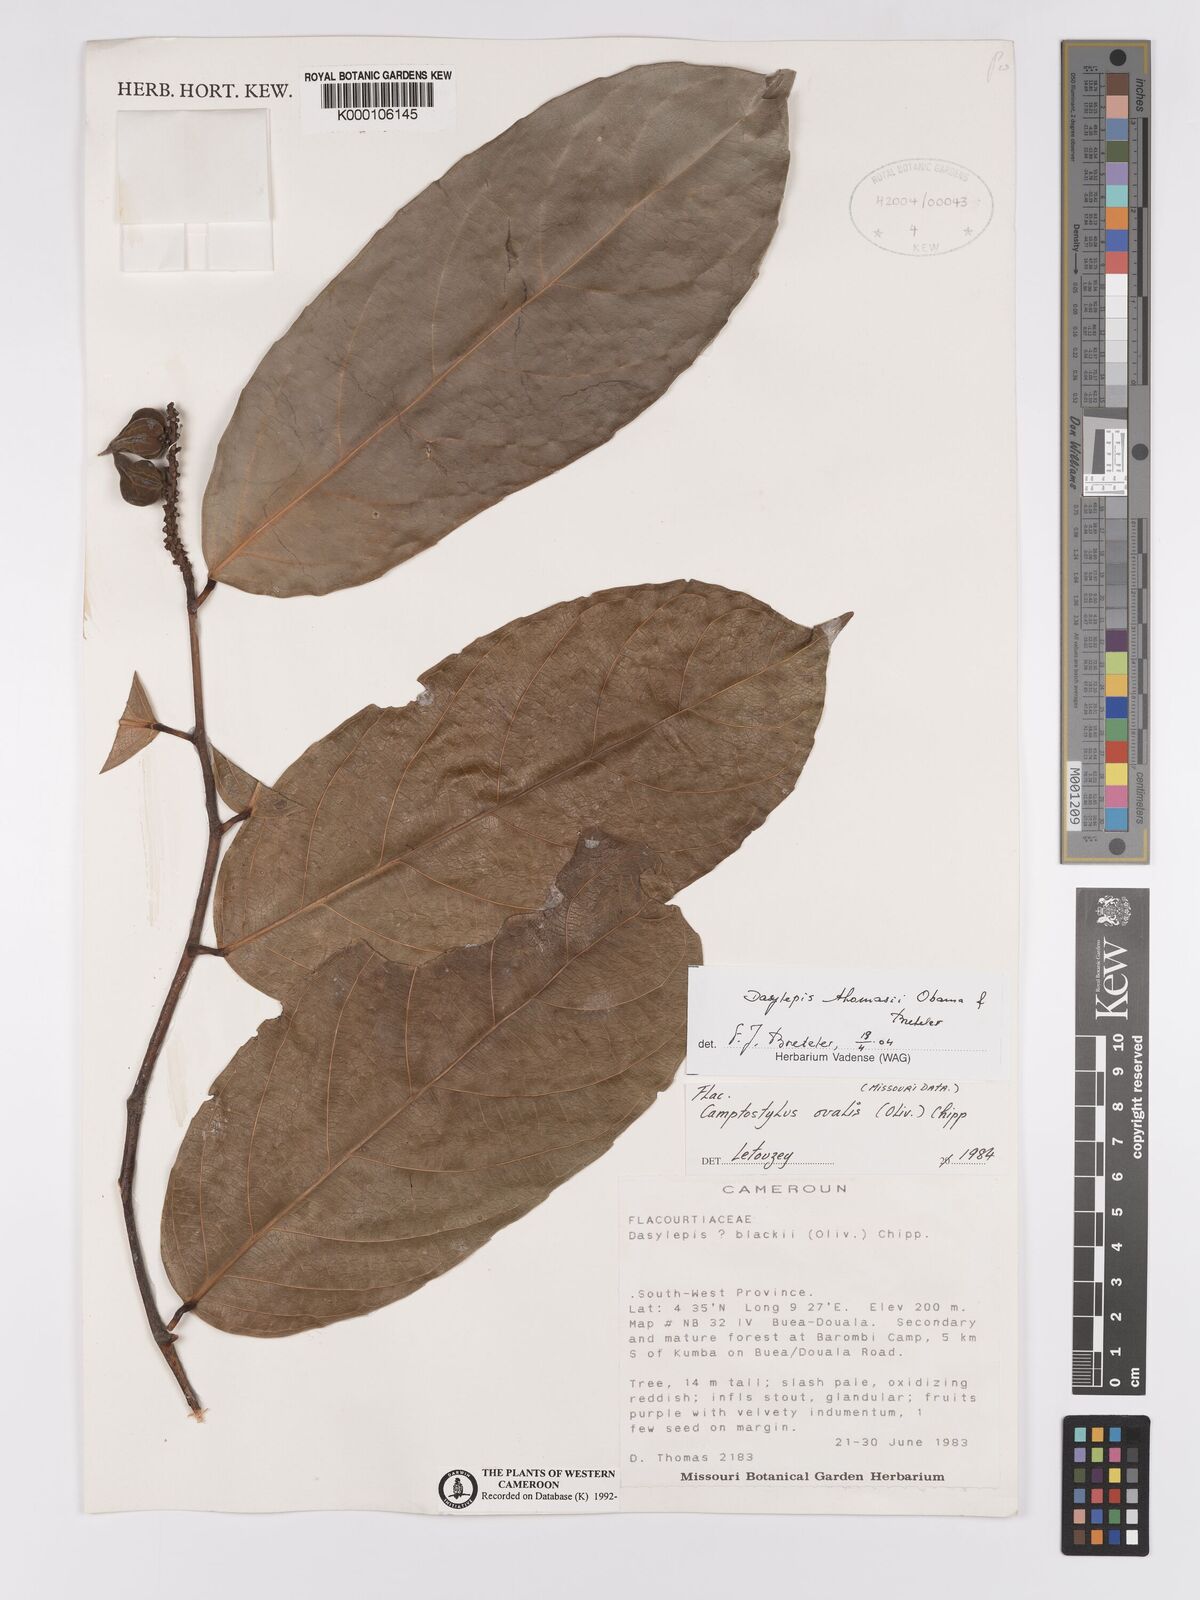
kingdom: Plantae
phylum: Tracheophyta
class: Magnoliopsida
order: Malpighiales
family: Achariaceae
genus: Camptostylus
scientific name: Camptostylus ovalis
